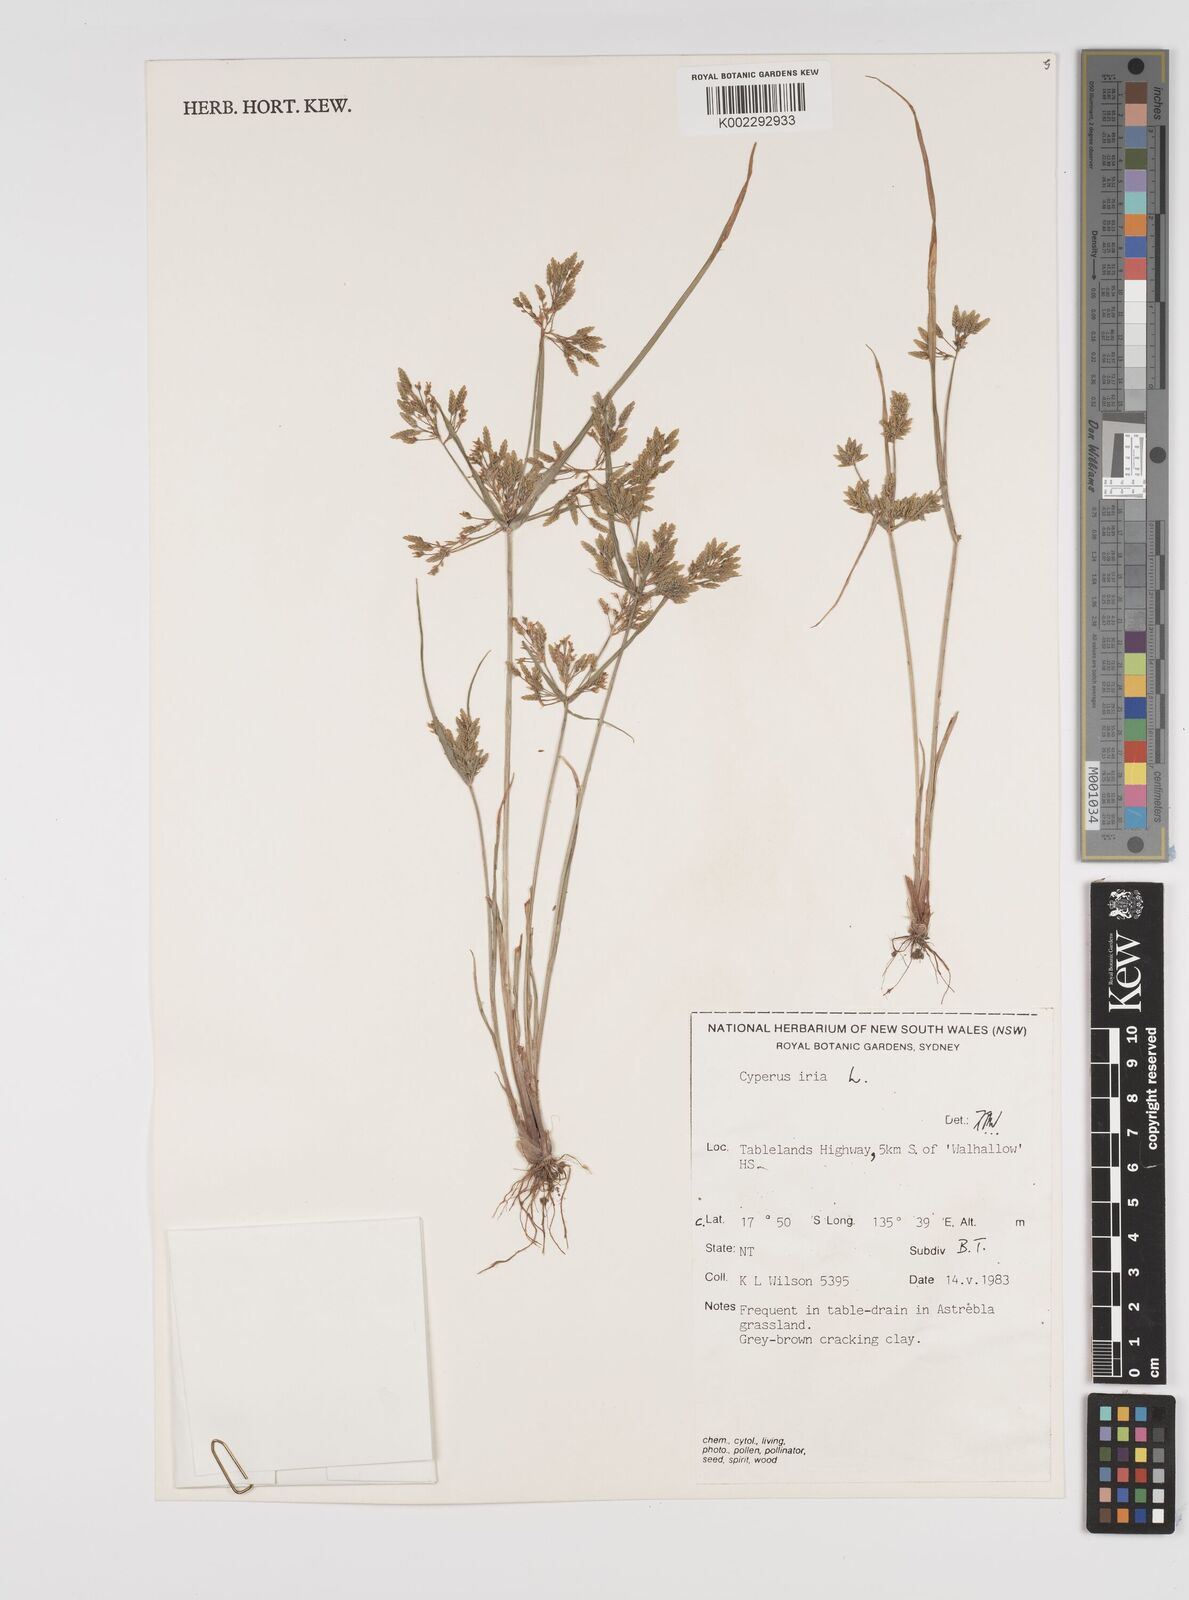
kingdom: Plantae
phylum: Tracheophyta
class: Liliopsida
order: Poales
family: Cyperaceae
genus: Cyperus
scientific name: Cyperus iria
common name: Ricefield flatsedge
